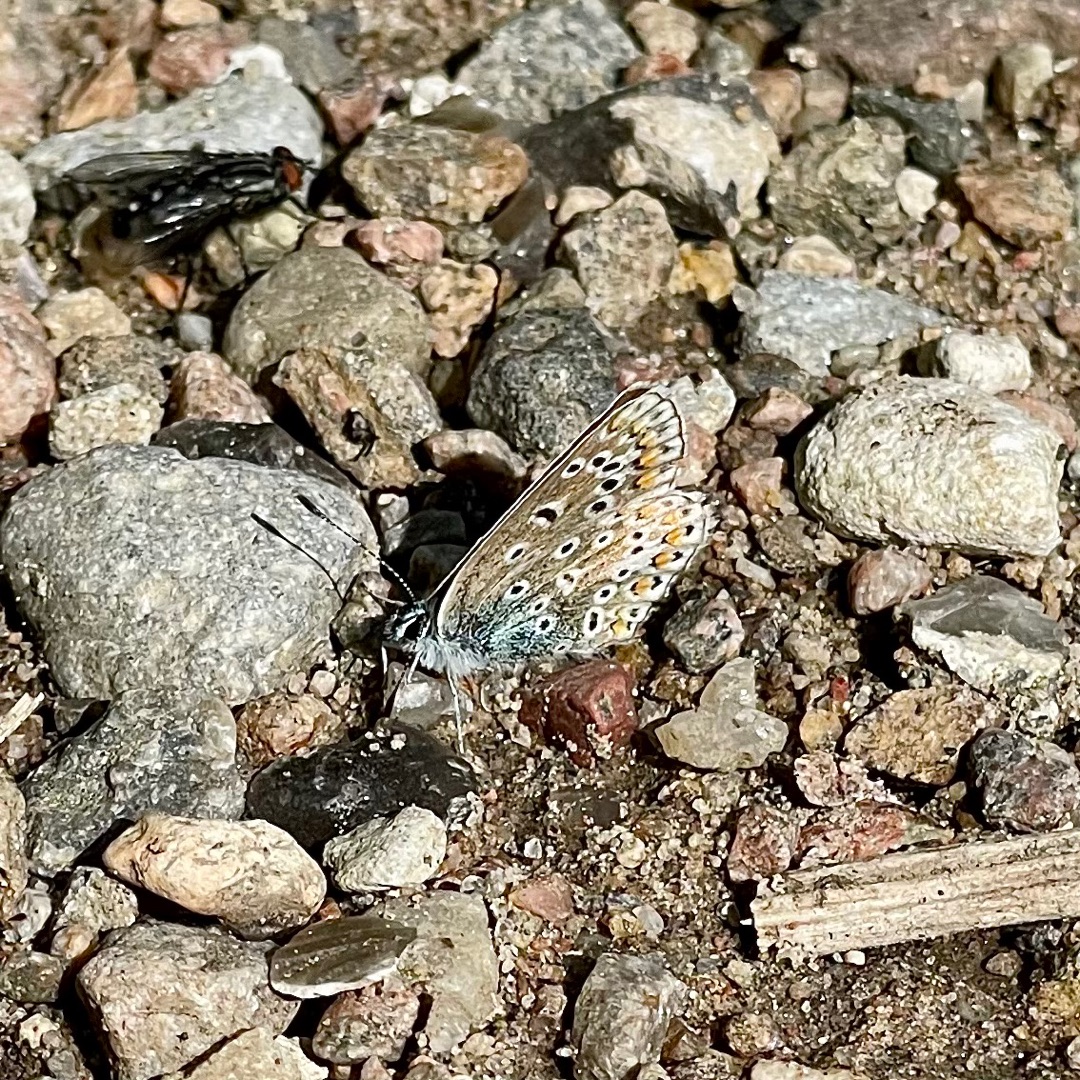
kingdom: Animalia
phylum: Arthropoda
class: Insecta
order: Lepidoptera
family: Lycaenidae
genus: Polyommatus
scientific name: Polyommatus icarus
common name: Almindelig blåfugl
